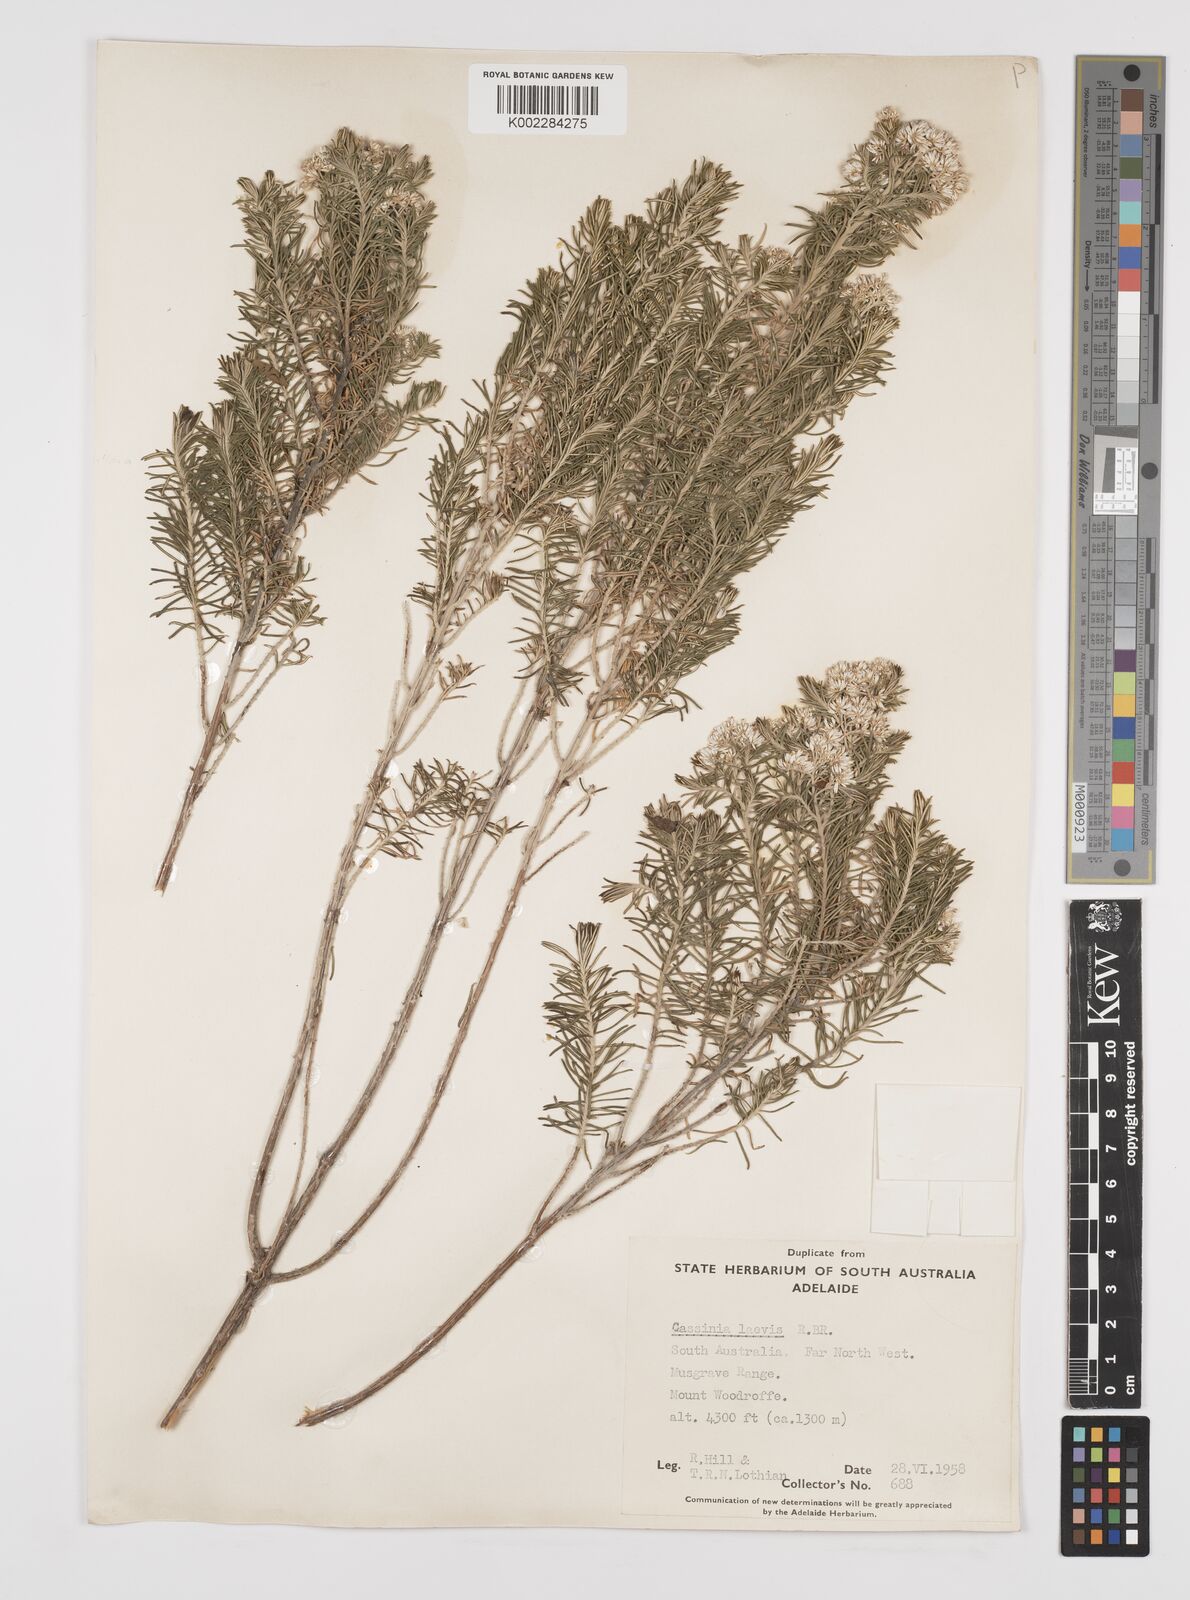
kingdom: Plantae
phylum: Tracheophyta
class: Magnoliopsida
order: Asterales
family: Asteraceae
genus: Cassinia
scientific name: Cassinia laevis
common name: Coughbush
